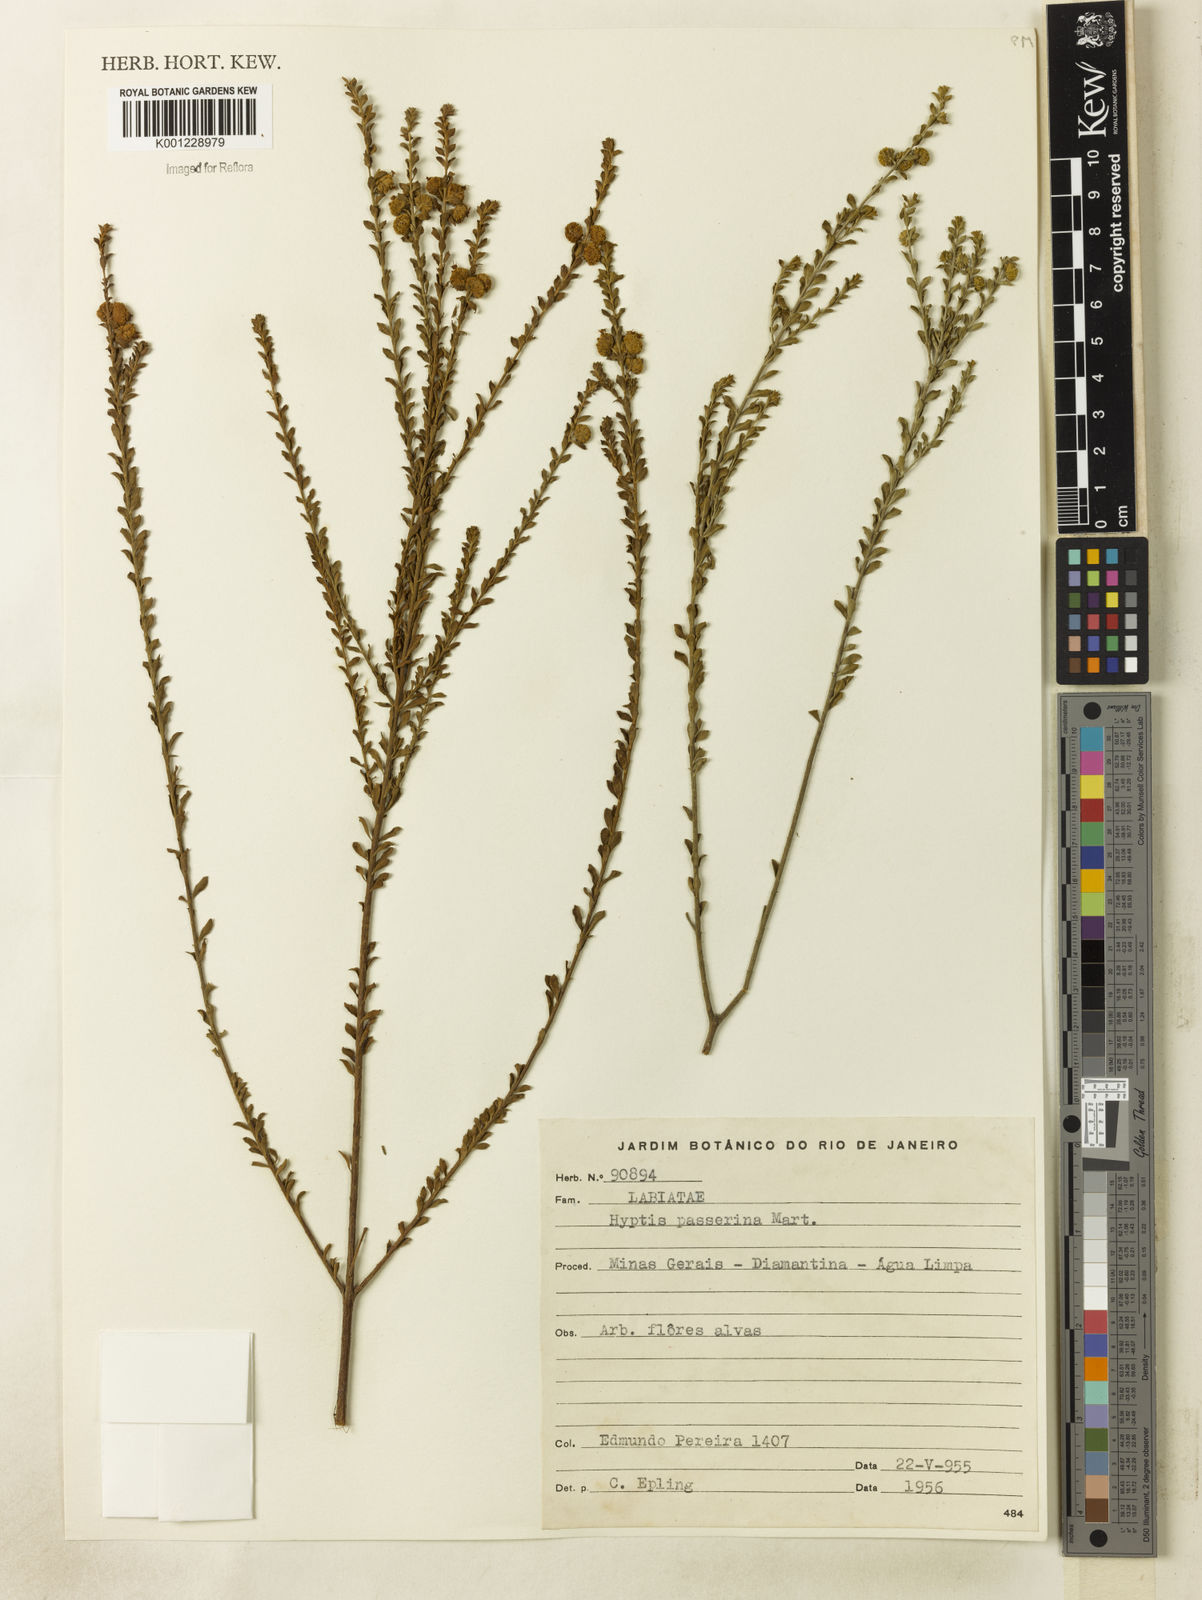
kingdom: Plantae
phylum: Tracheophyta
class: Magnoliopsida
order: Lamiales
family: Lamiaceae
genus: Hyptis
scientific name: Hyptis passerina
